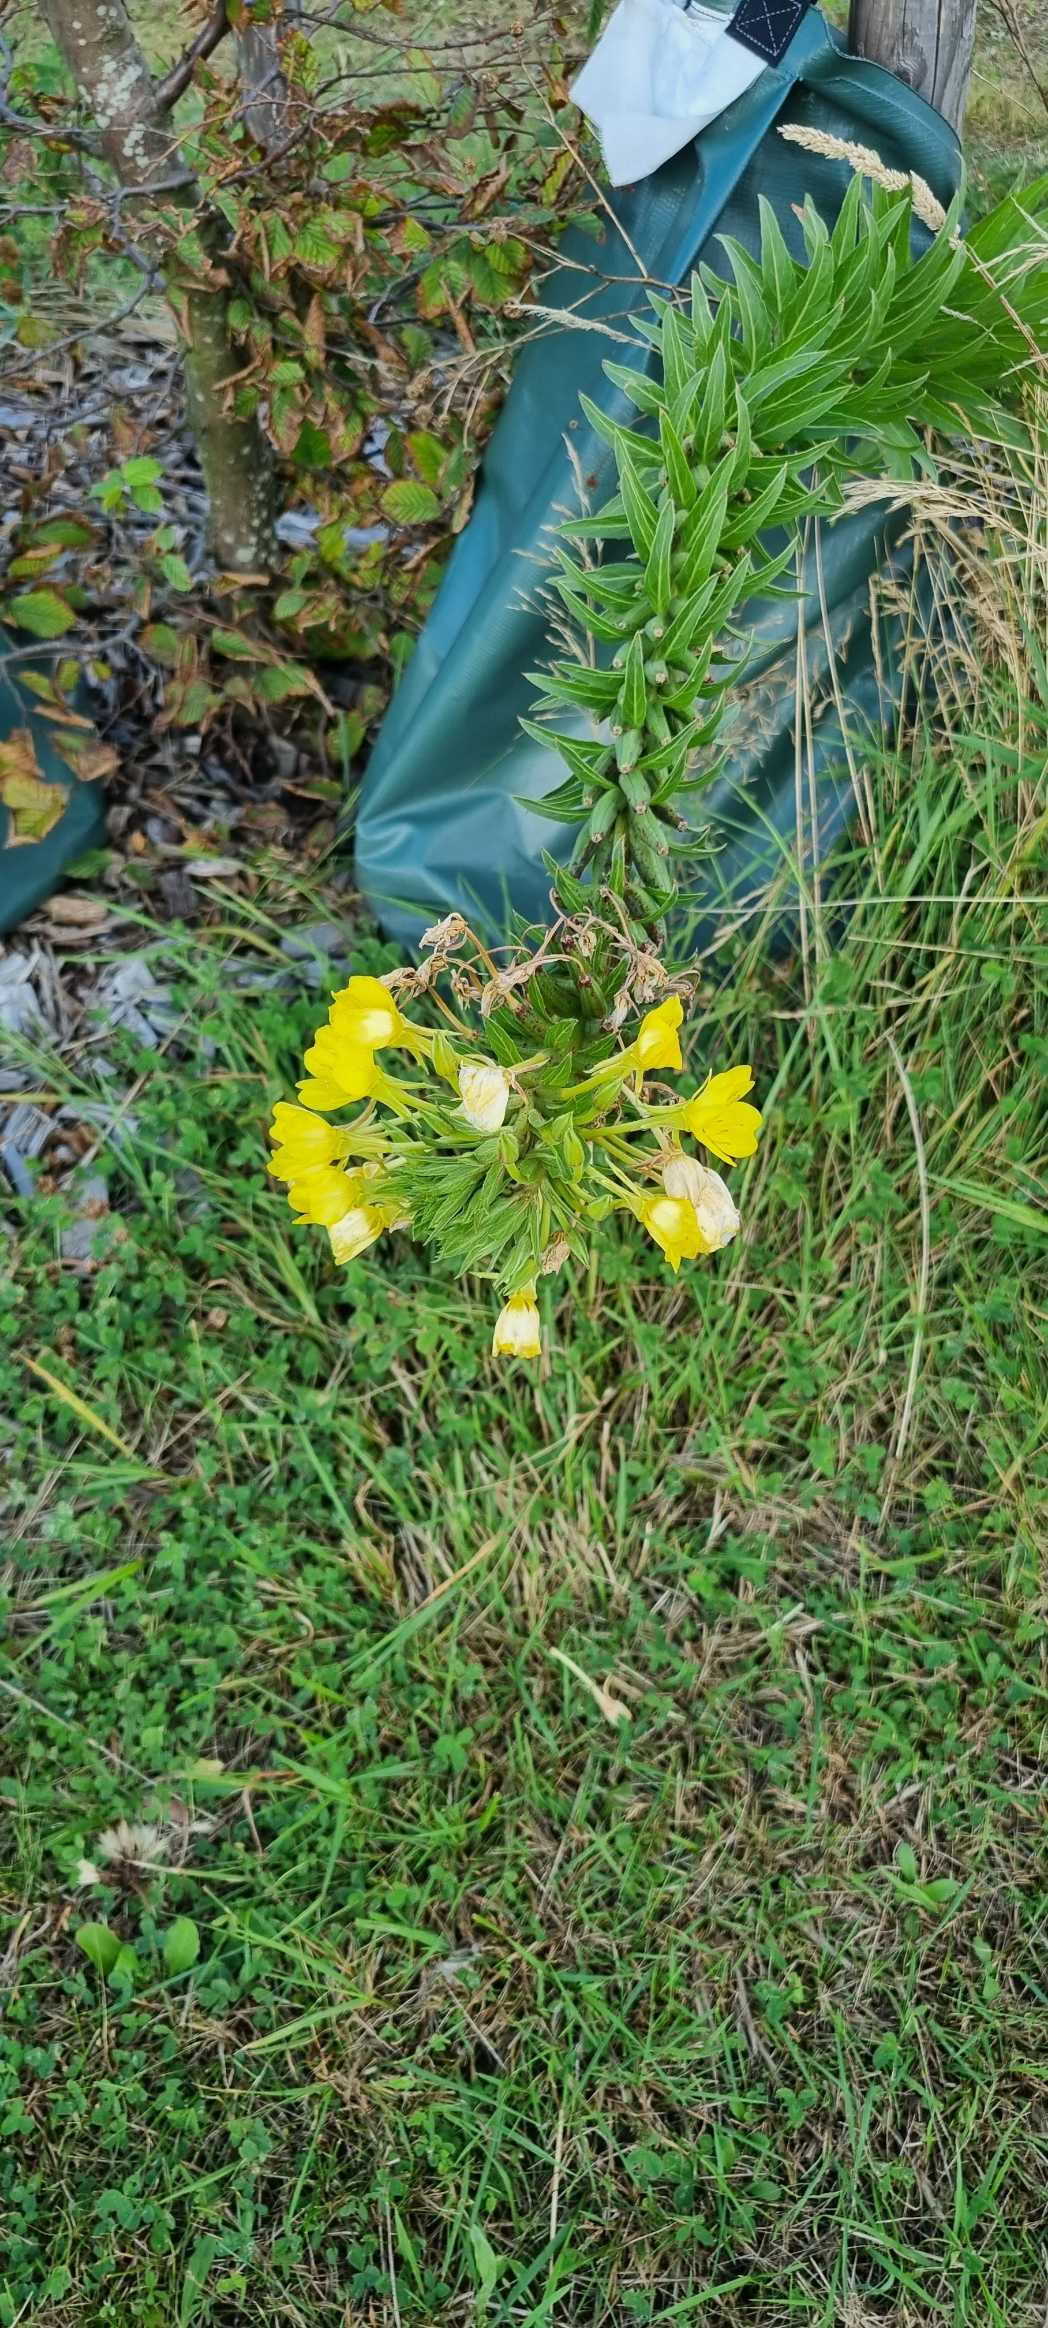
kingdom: Plantae
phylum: Tracheophyta
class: Magnoliopsida
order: Myrtales
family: Onagraceae
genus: Oenothera
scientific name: Oenothera
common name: Natlysslægten
